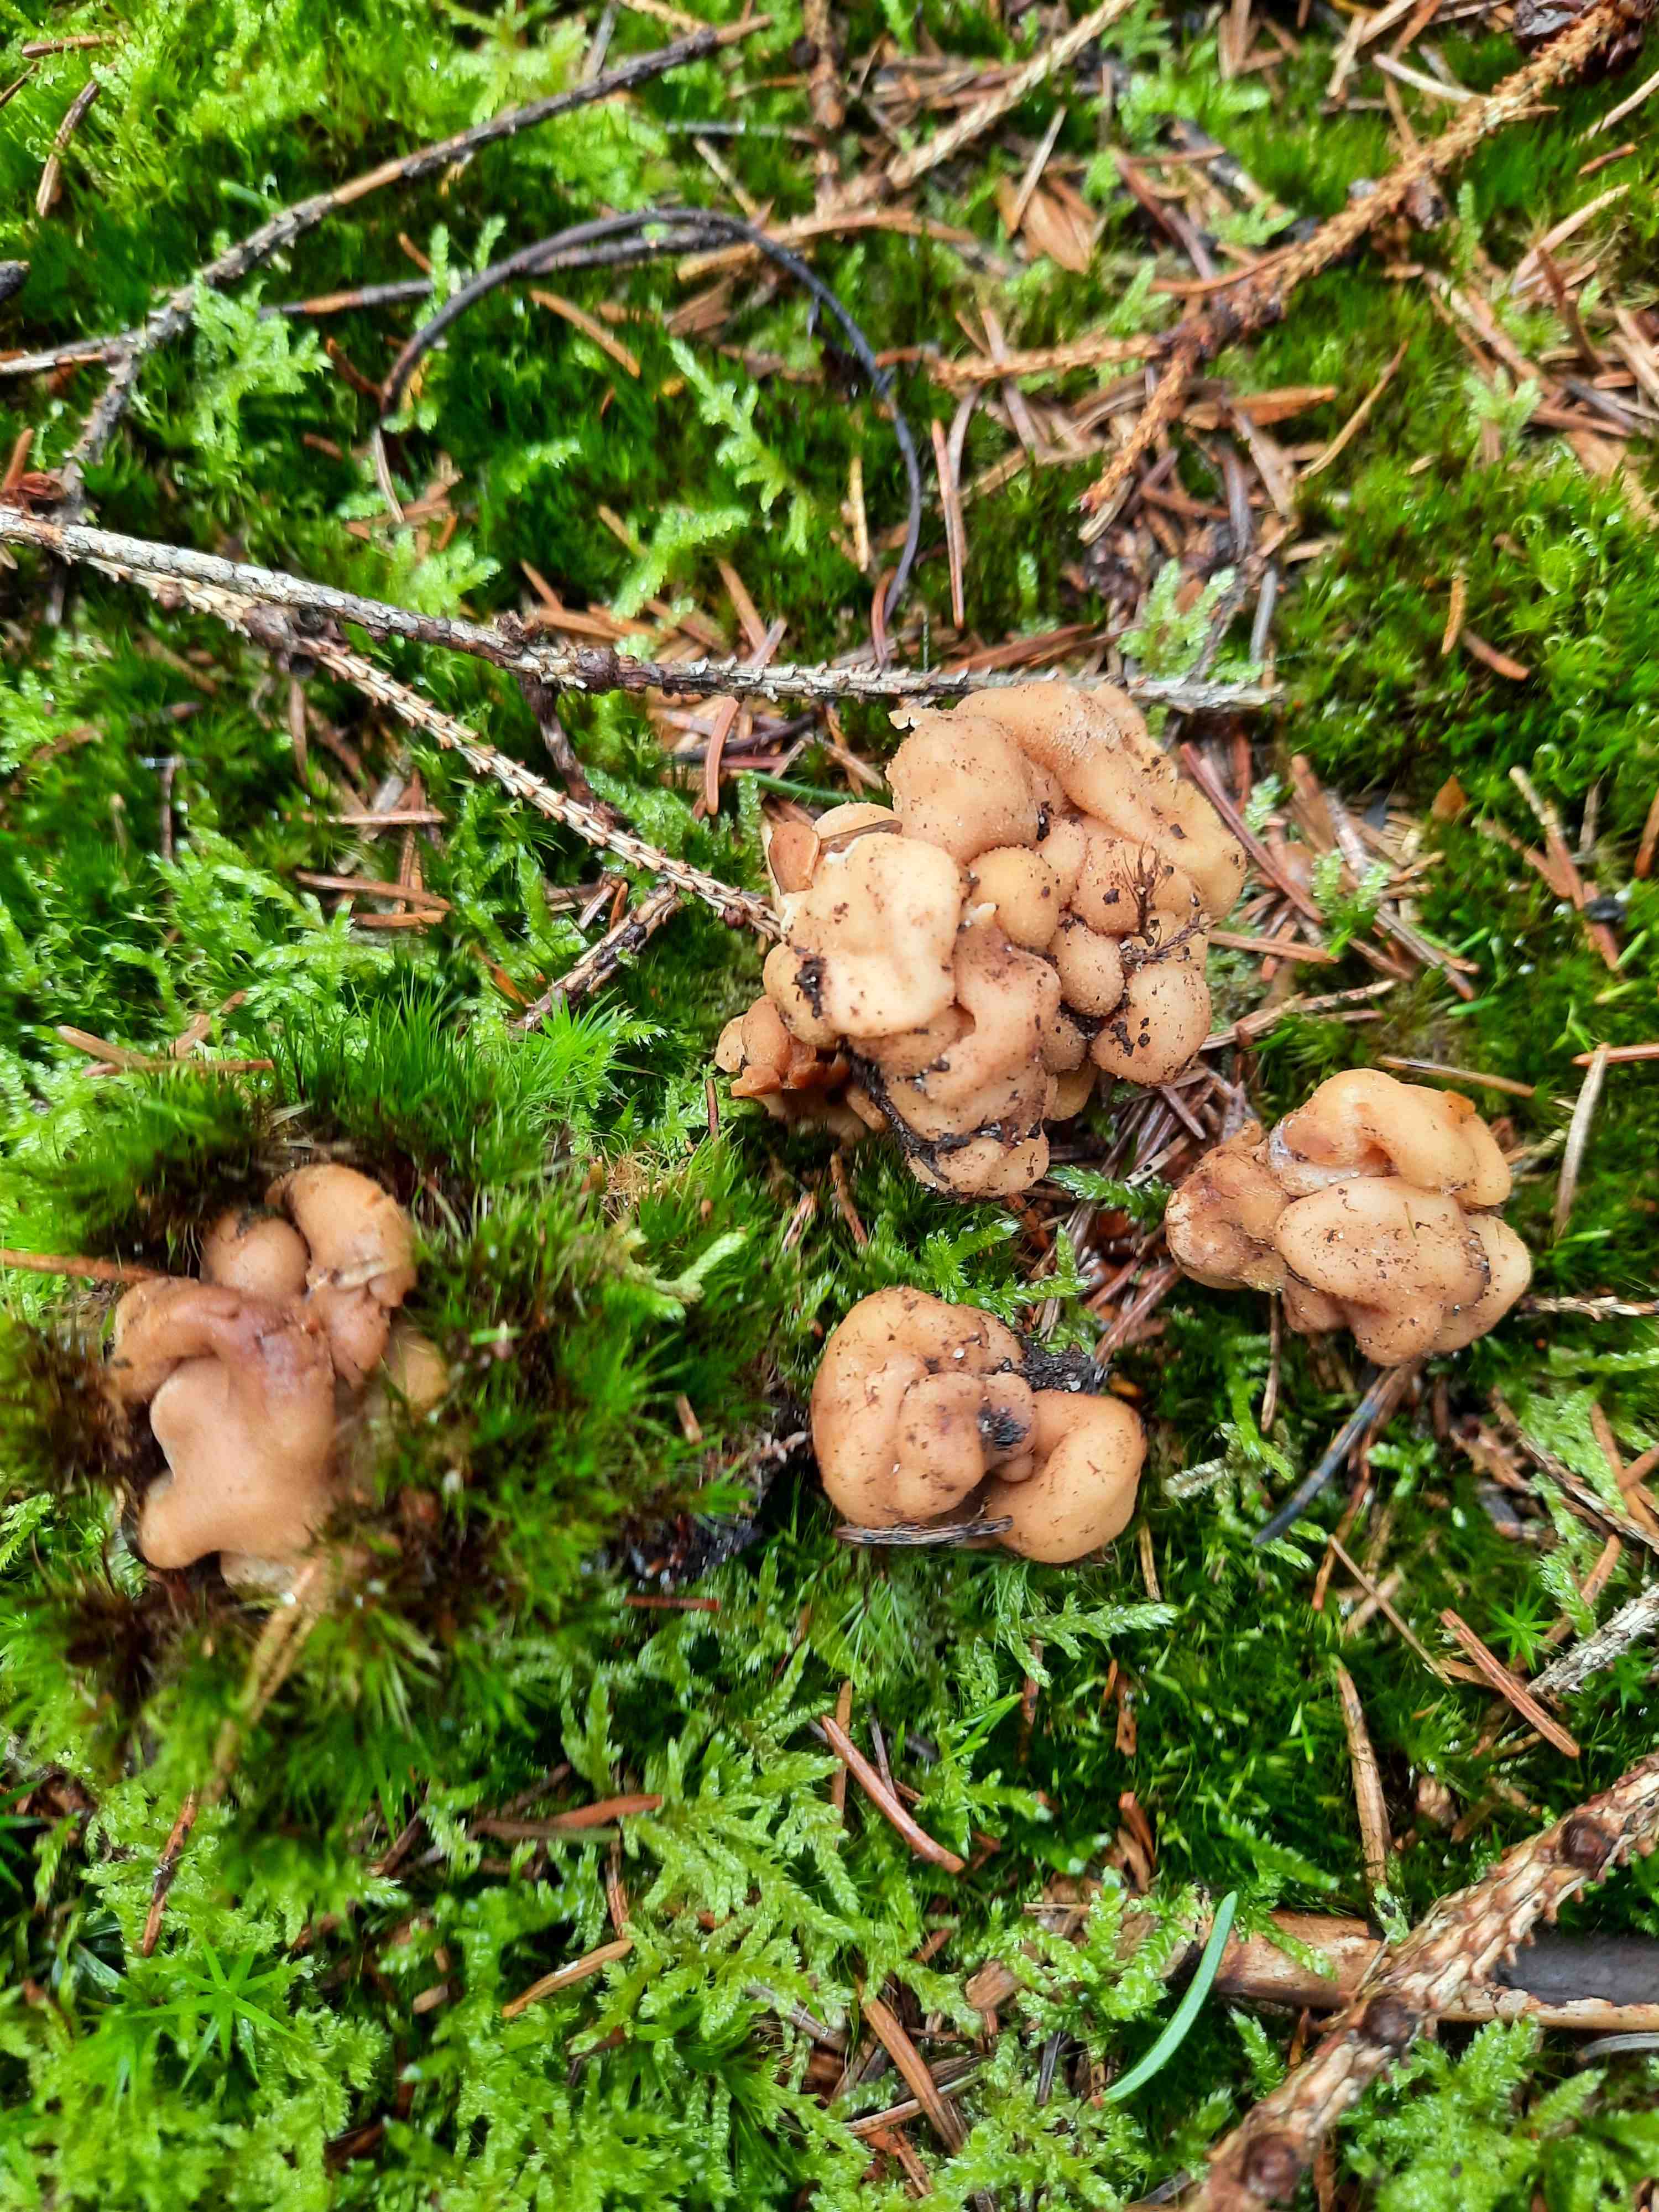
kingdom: Fungi
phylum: Ascomycota
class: Pezizomycetes
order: Pezizales
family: Discinaceae
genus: Hydnotrya
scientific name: Hydnotrya cubispora
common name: kassesporet foldtrøffel
